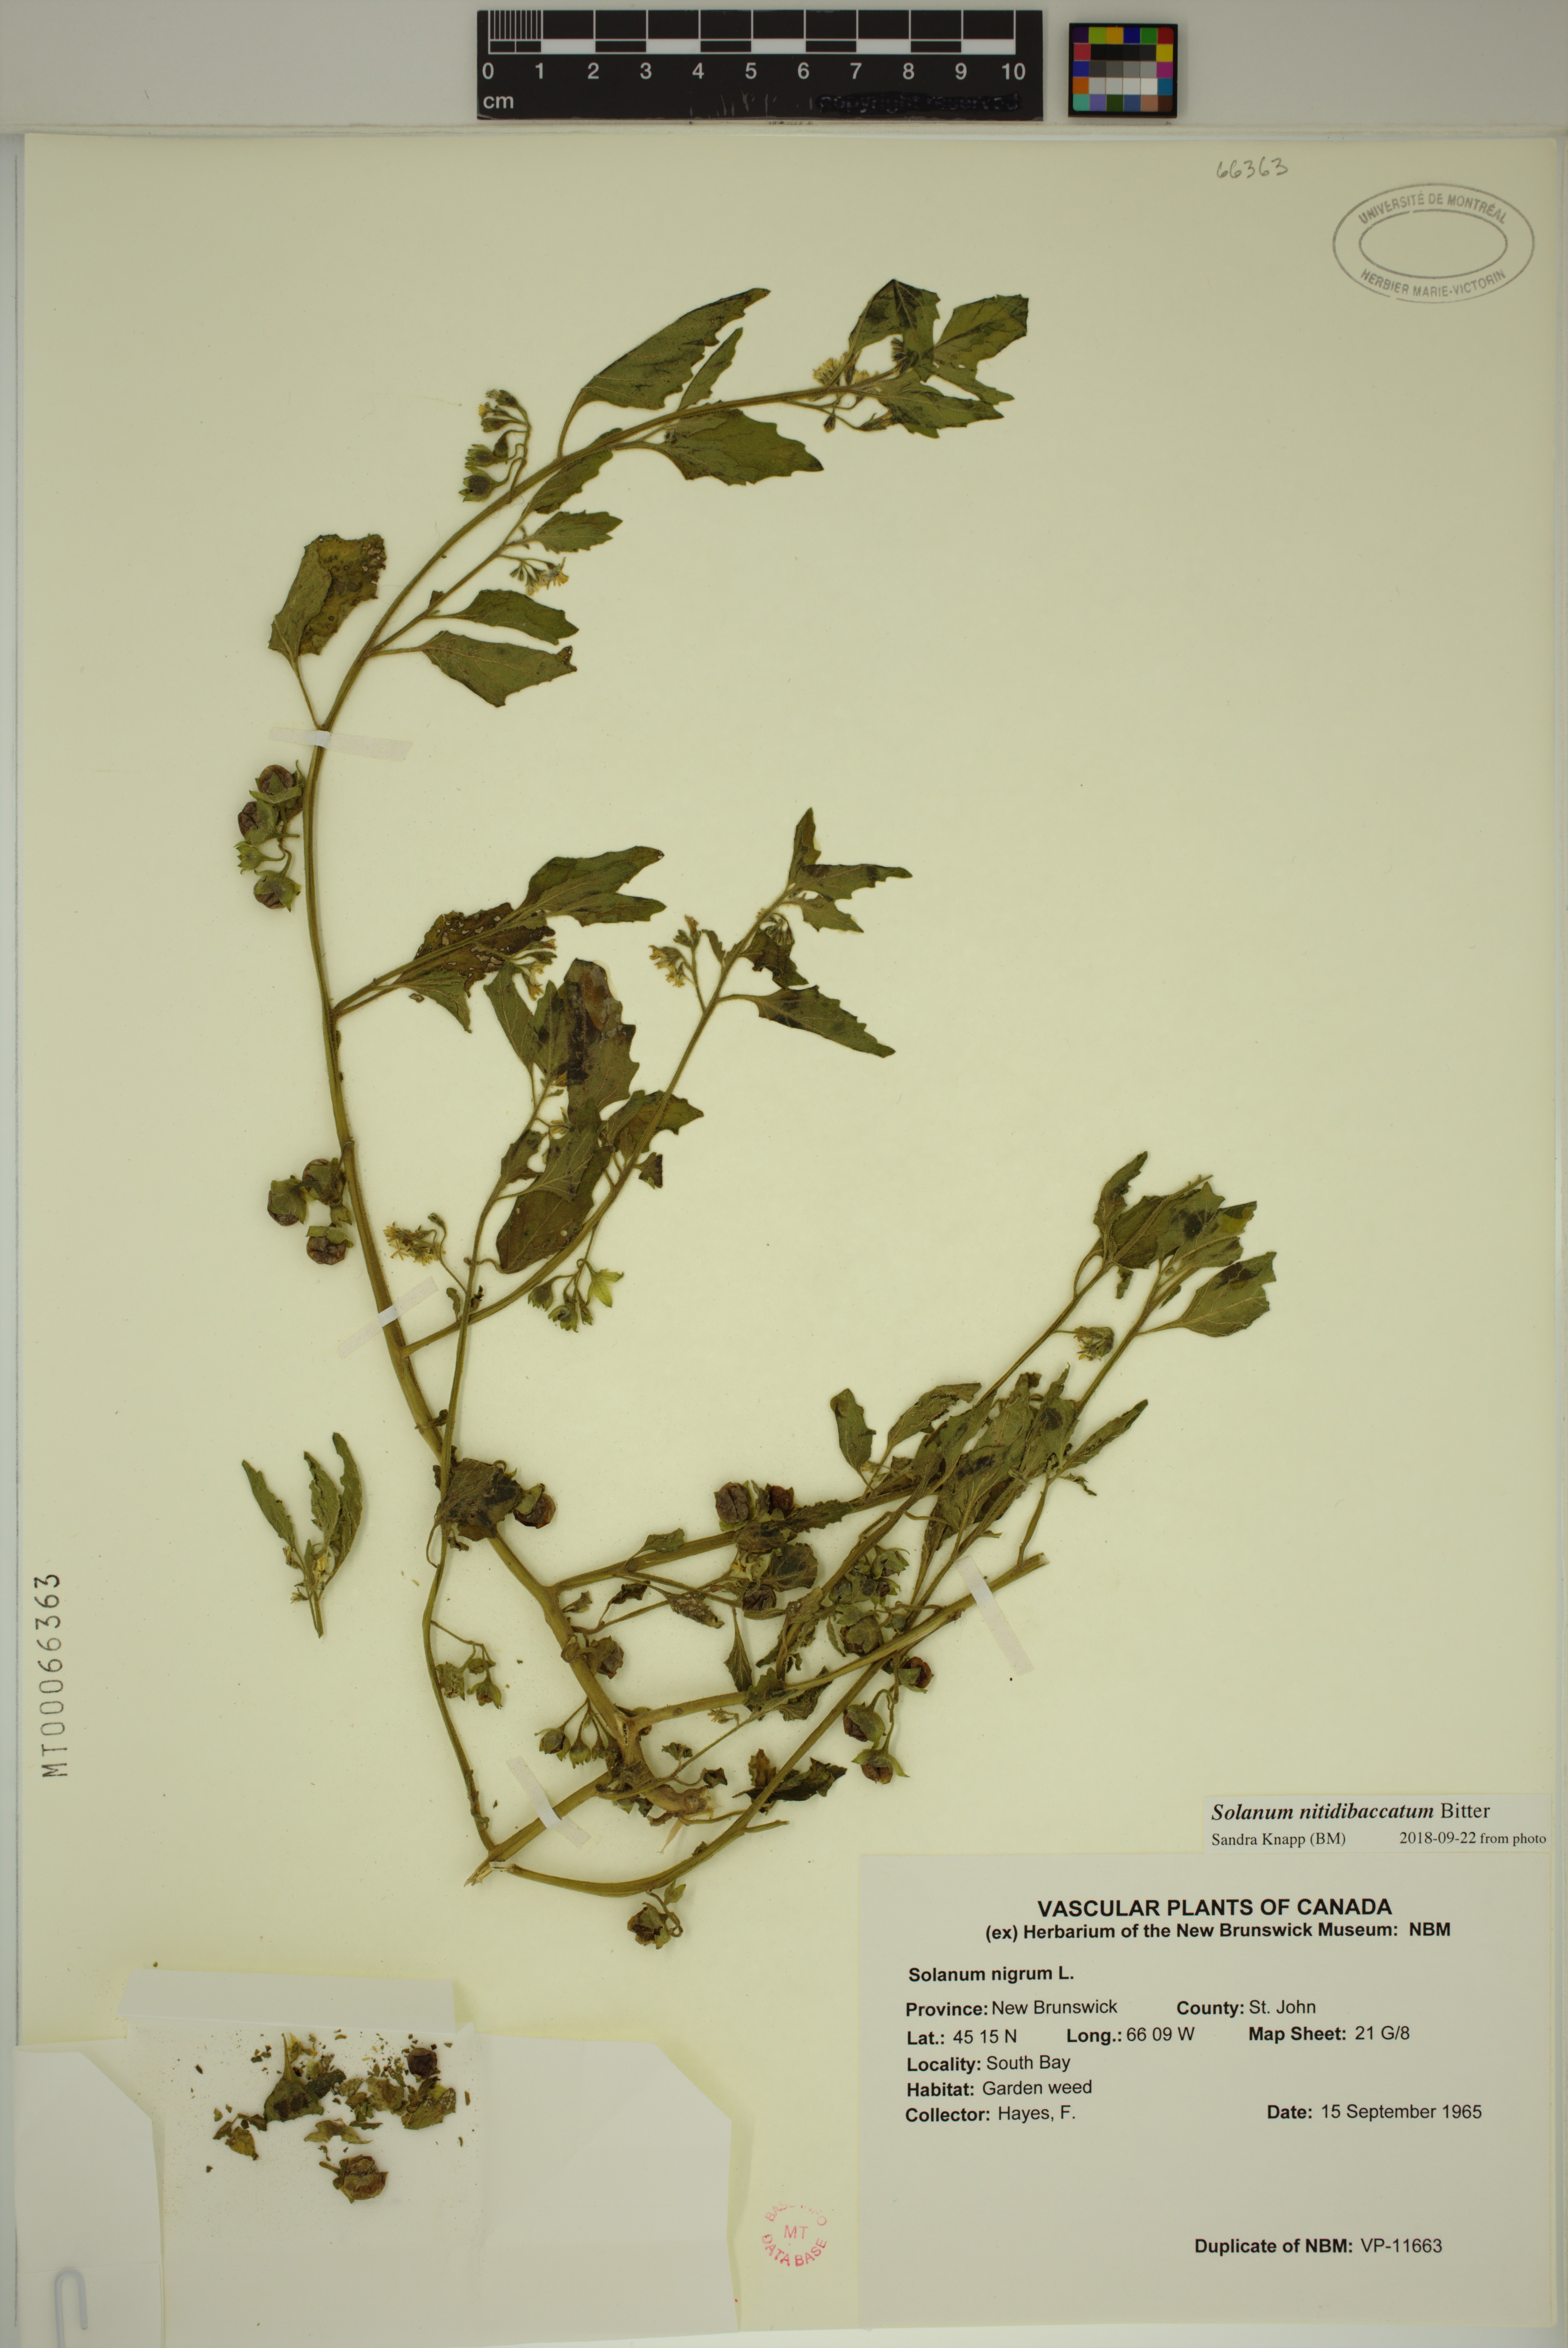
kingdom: Plantae
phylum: Tracheophyta
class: Magnoliopsida
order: Solanales
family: Solanaceae
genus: Solanum
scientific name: Solanum nitidibaccatum
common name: Hairy nightshade
